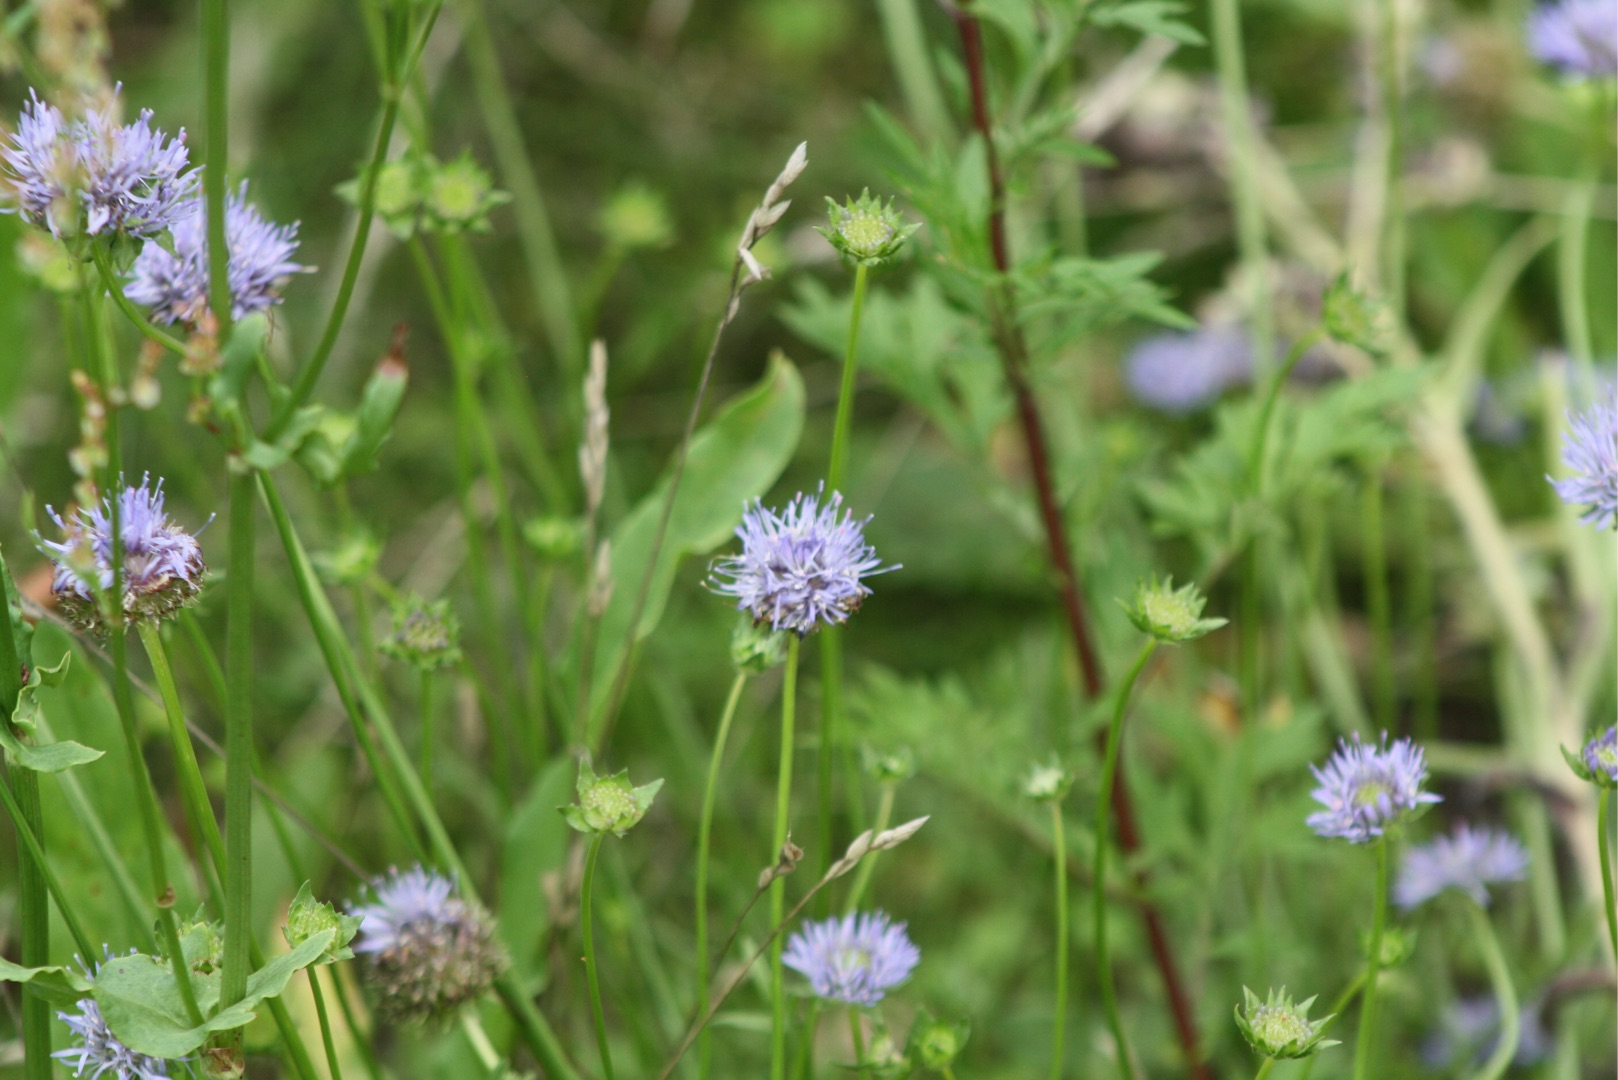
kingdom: Plantae
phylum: Tracheophyta
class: Magnoliopsida
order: Asterales
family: Campanulaceae
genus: Jasione
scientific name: Jasione montana
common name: Blåmunke
